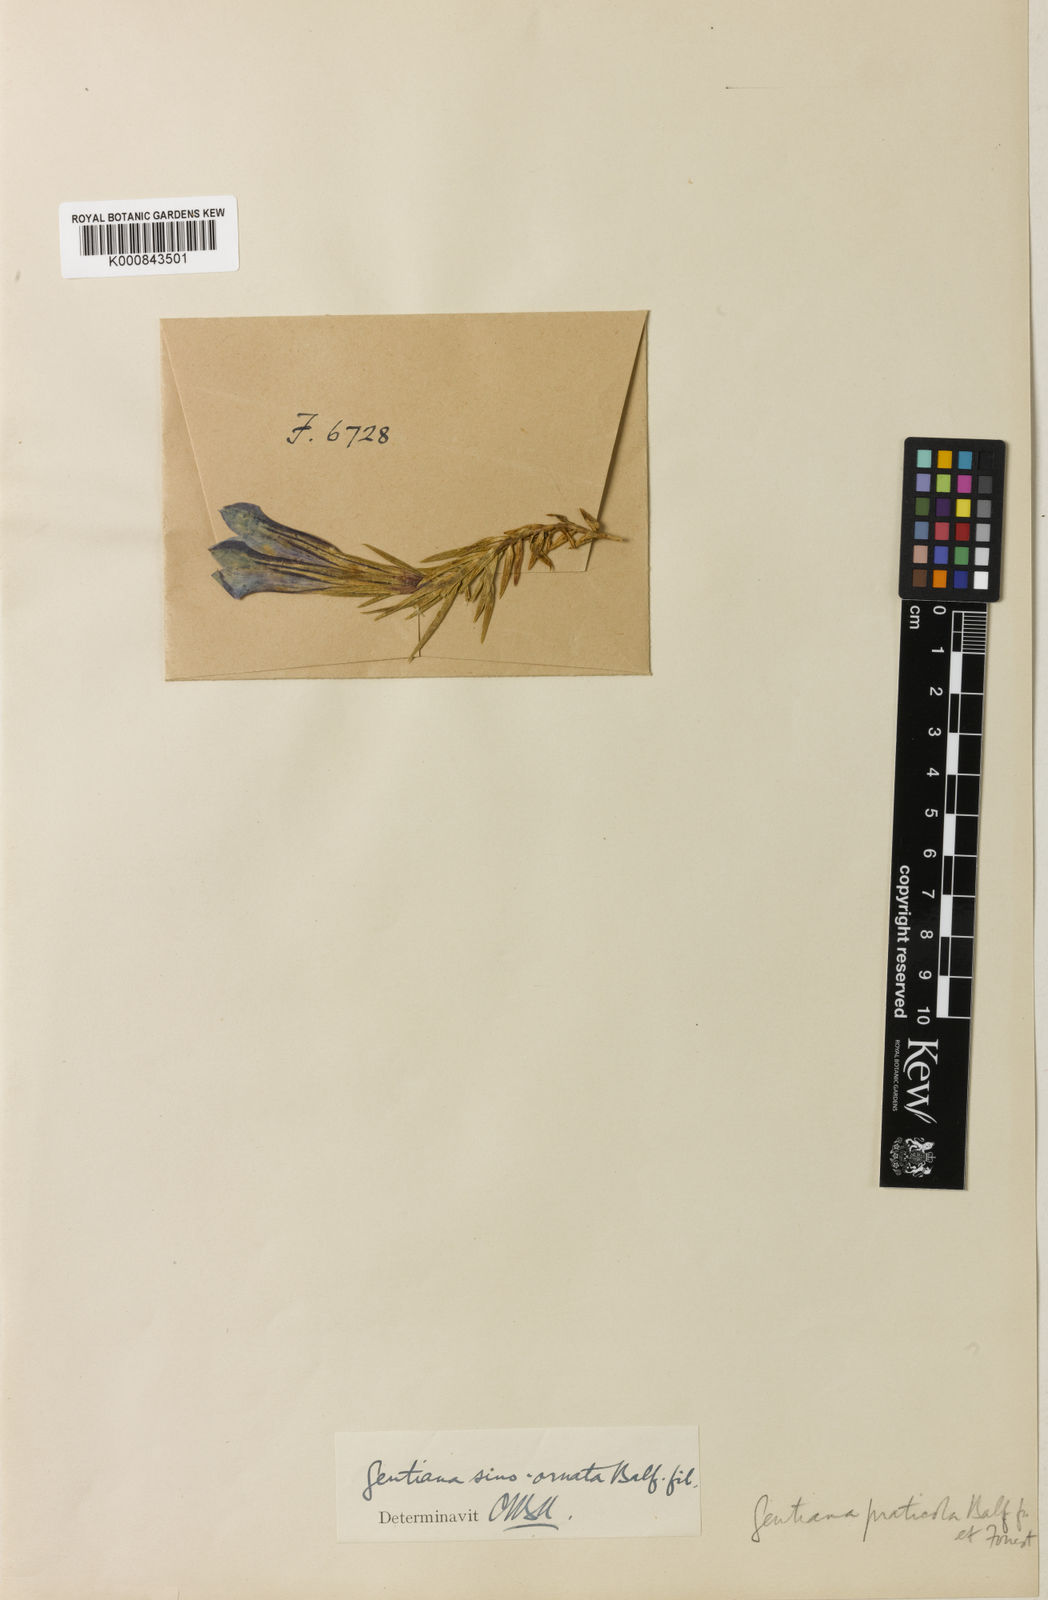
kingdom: Plantae
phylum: Tracheophyta
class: Magnoliopsida
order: Gentianales
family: Gentianaceae
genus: Gentiana
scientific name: Gentiana
